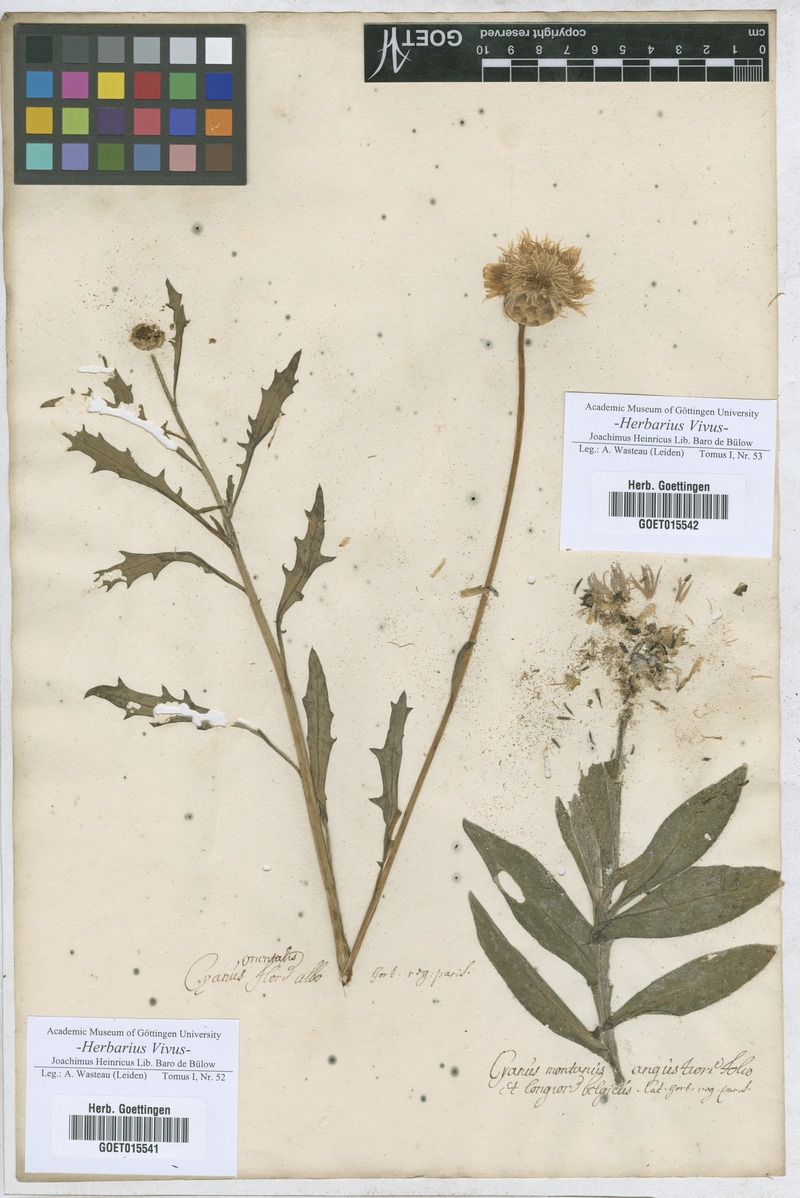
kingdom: Plantae
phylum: Tracheophyta
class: Magnoliopsida
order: Asterales
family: Asteraceae
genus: Amberboa
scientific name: Amberboa moschata
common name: Sweet-sultan
